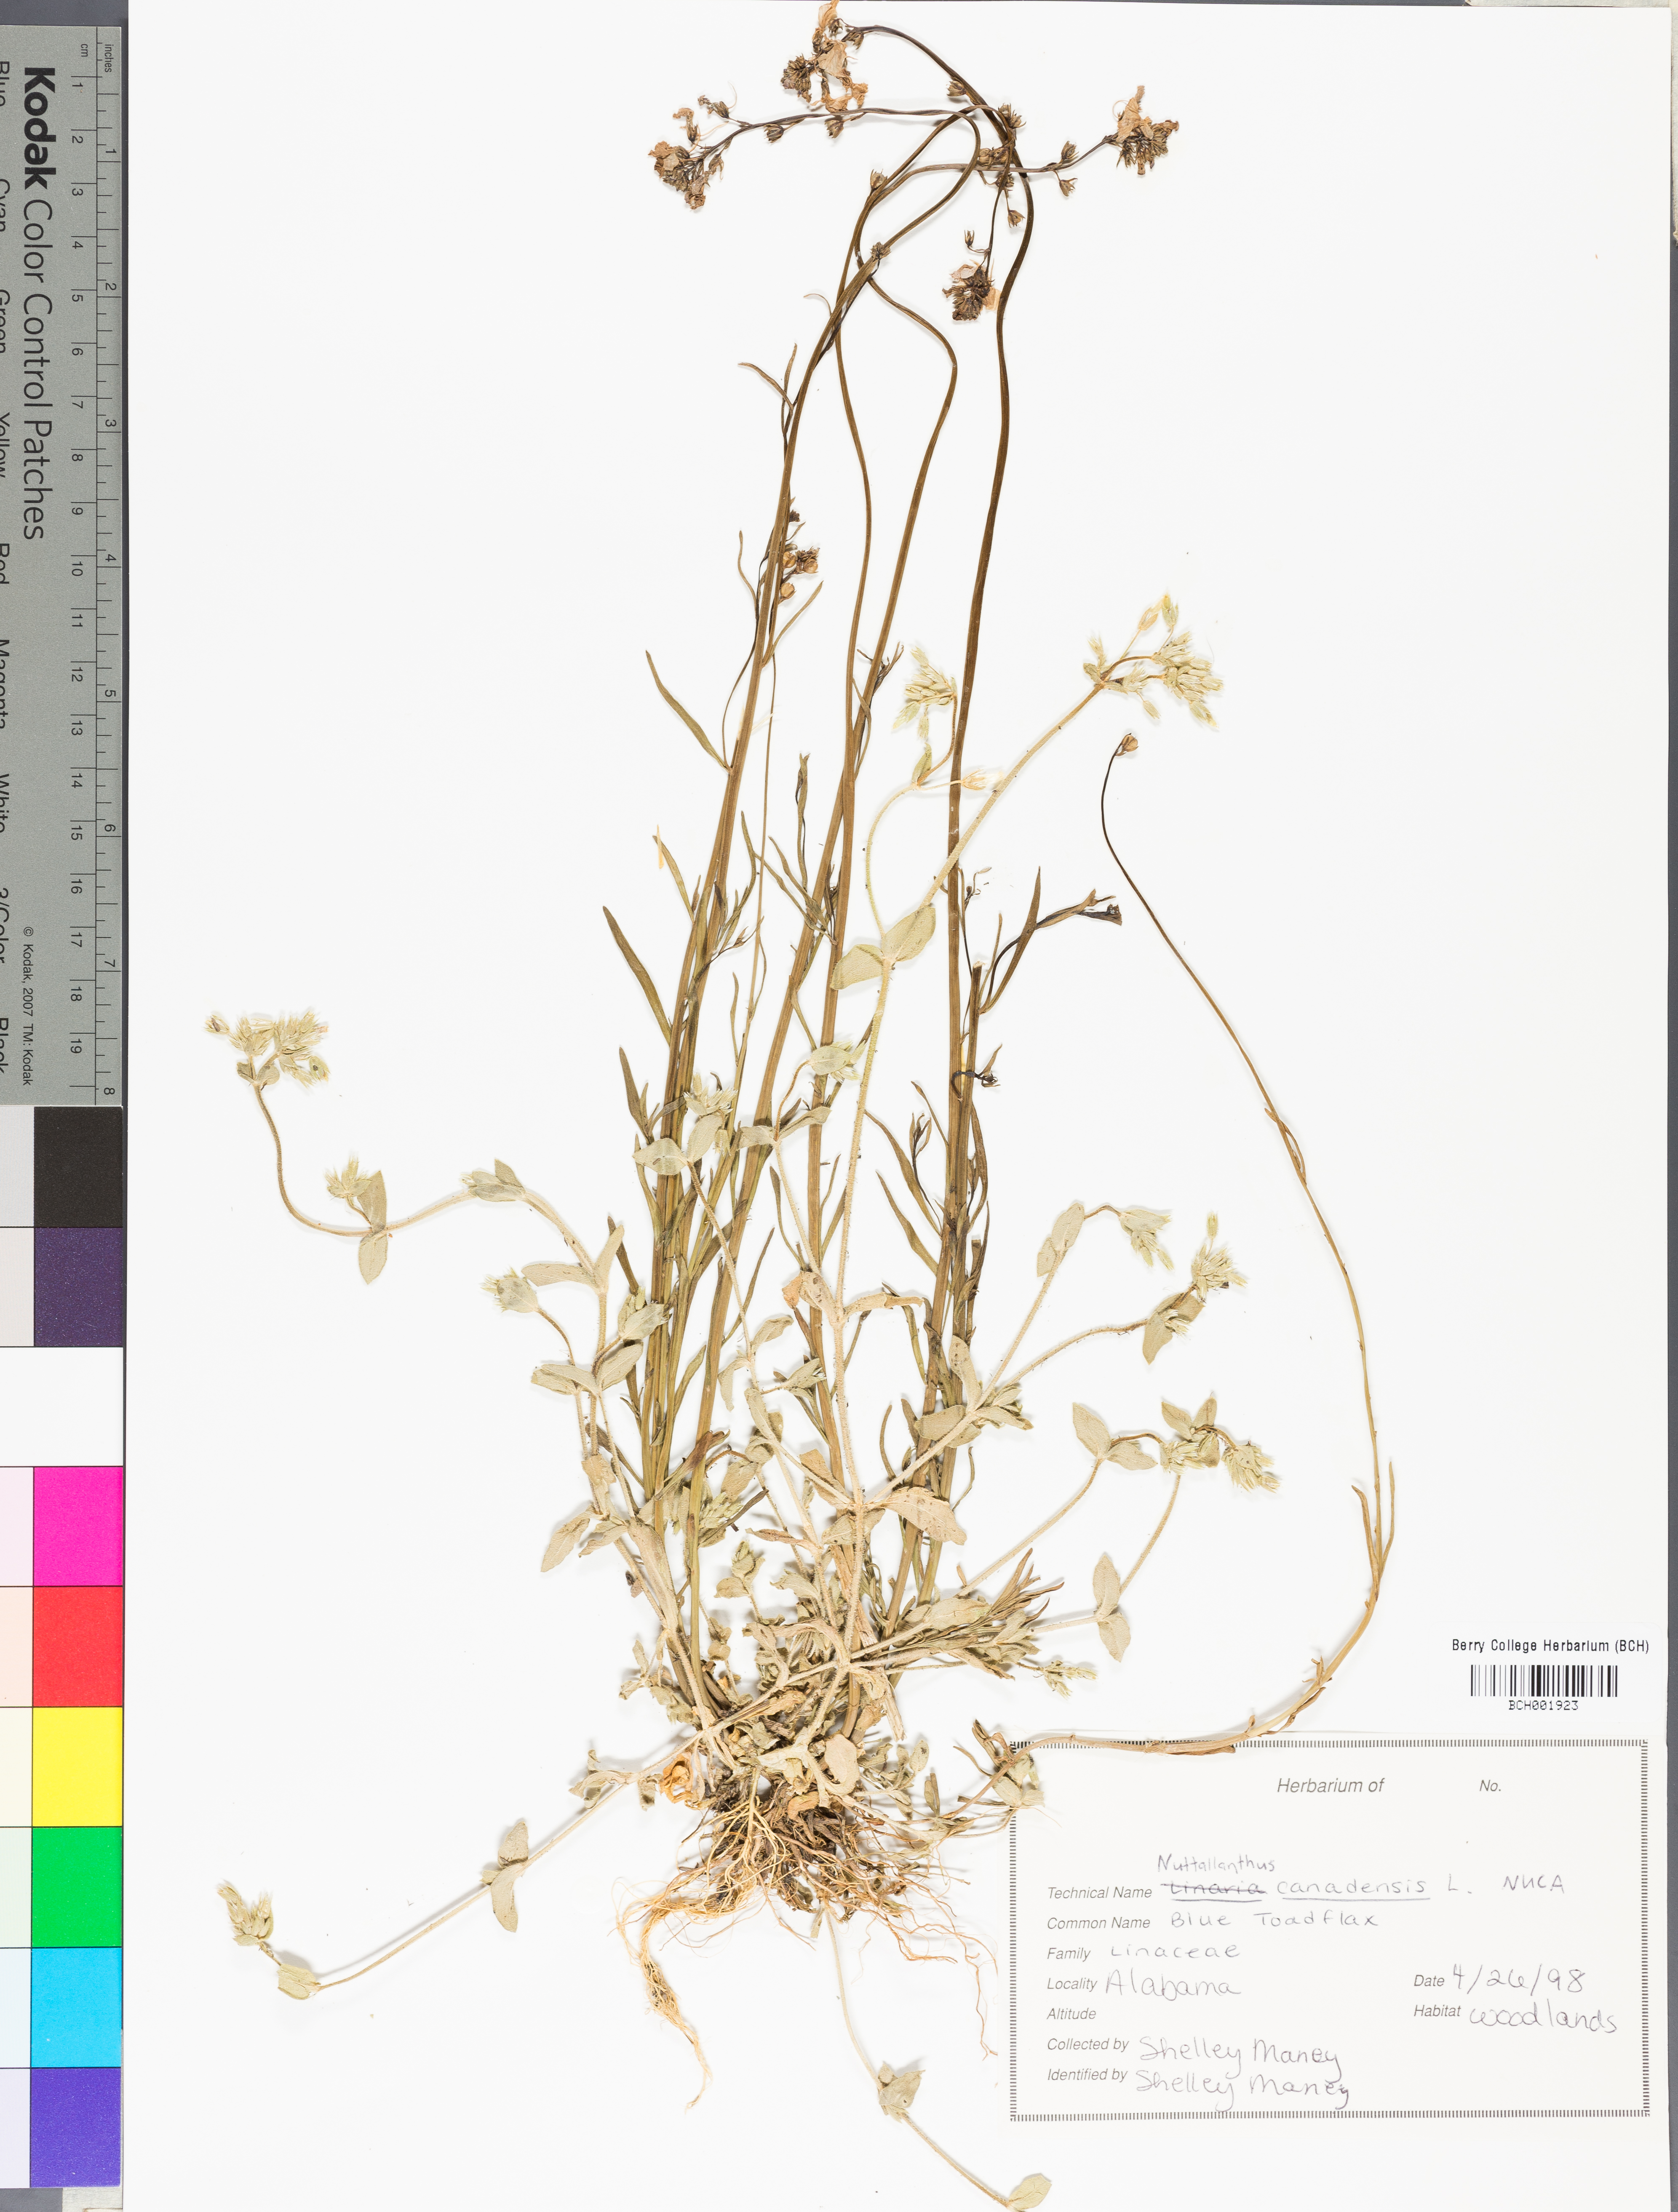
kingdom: Plantae
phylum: Tracheophyta
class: Magnoliopsida
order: Lamiales
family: Plantaginaceae
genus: Nuttallanthus
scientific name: Nuttallanthus canadensis
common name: Blue toadflax
